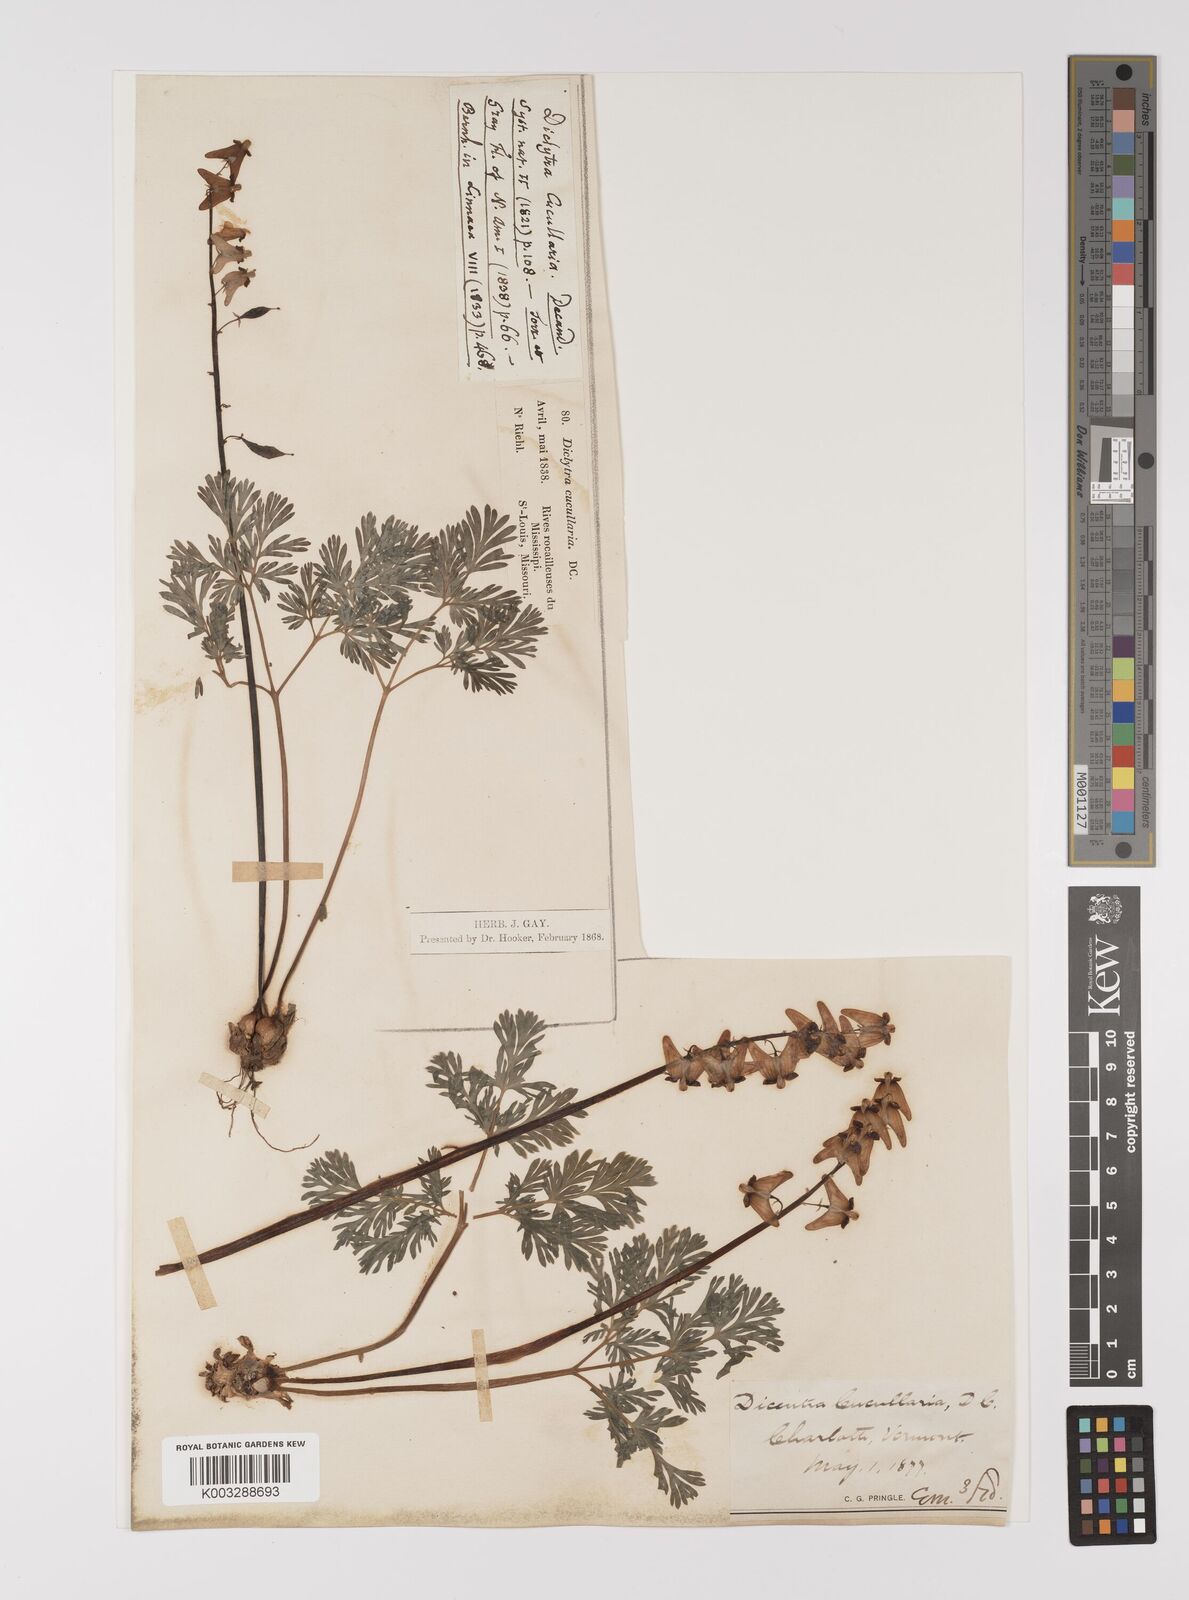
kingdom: Plantae
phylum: Tracheophyta
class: Magnoliopsida
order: Ranunculales
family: Papaveraceae
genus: Dicentra
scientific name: Dicentra cucullaria
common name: Dutchman's breeches
